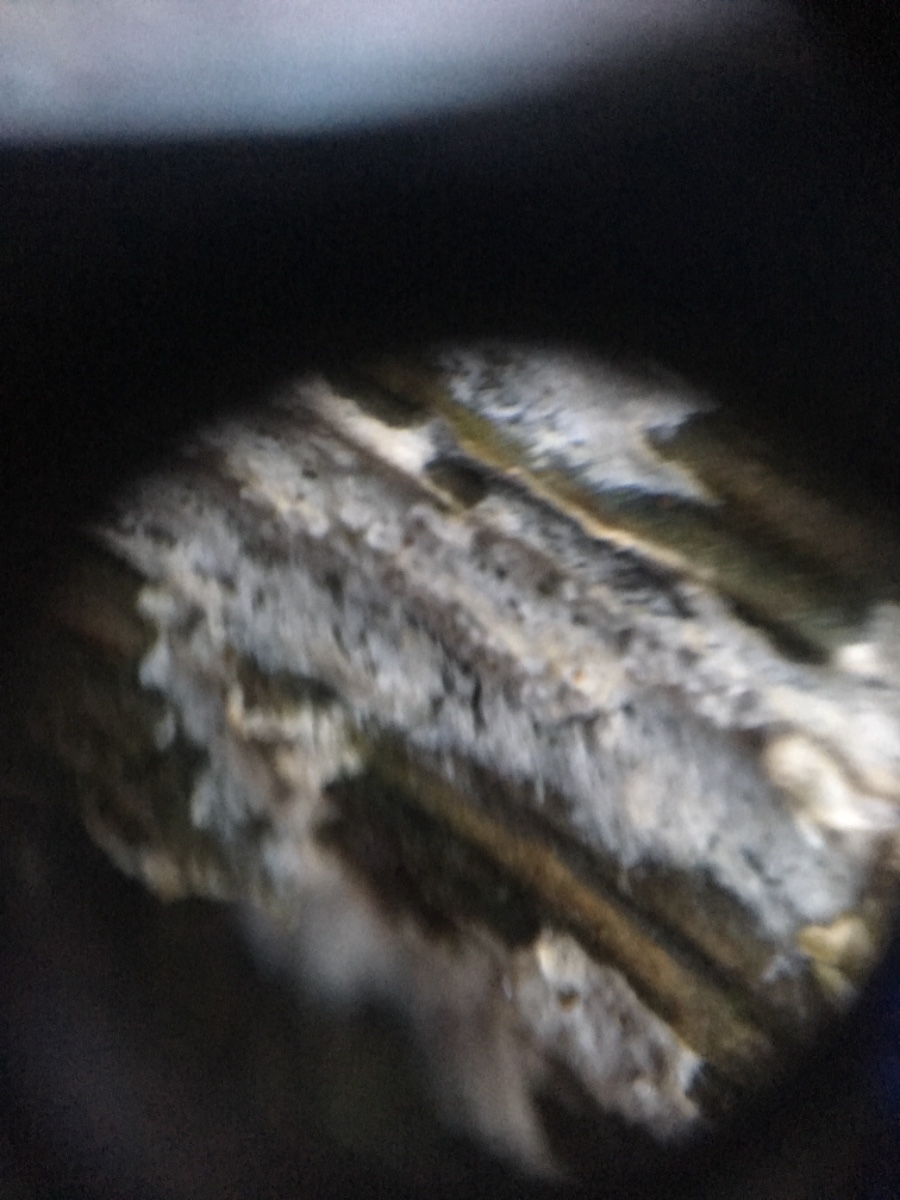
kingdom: Fungi
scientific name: Fungi
